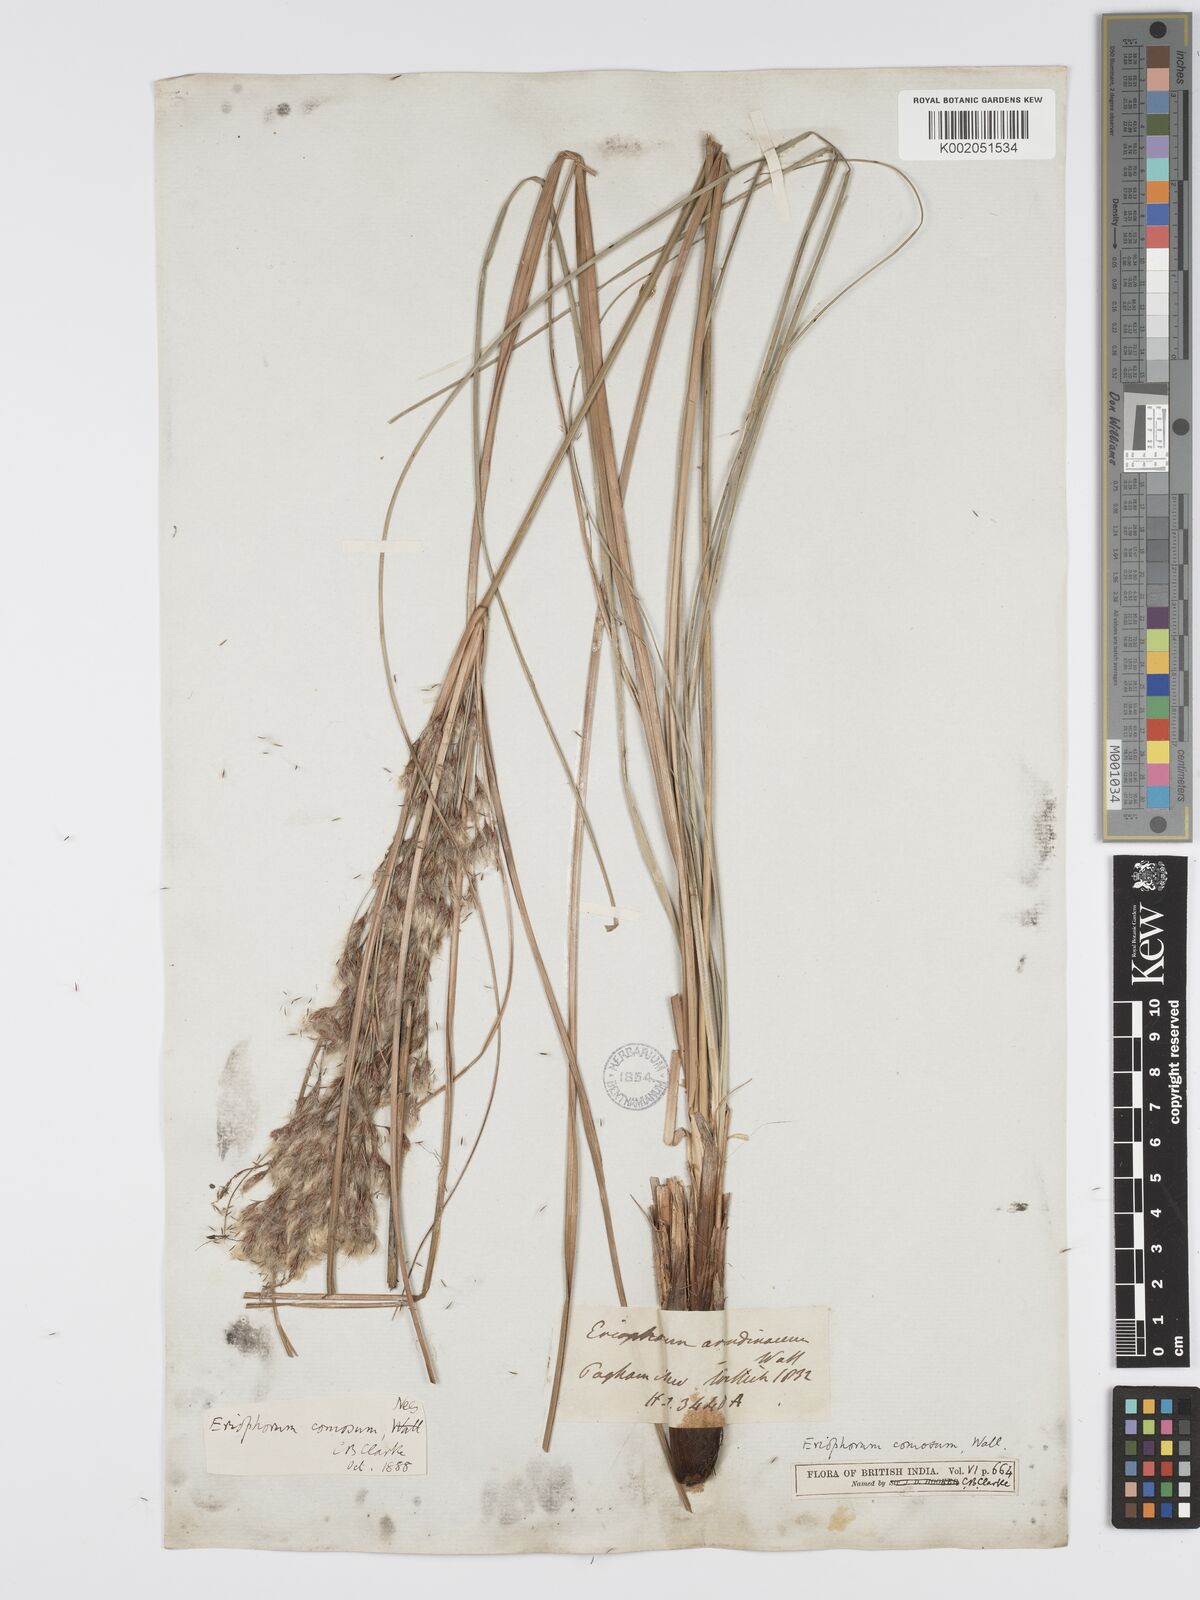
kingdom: Plantae
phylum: Tracheophyta
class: Liliopsida
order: Poales
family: Cyperaceae
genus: Erioscirpus
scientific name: Erioscirpus comosus
